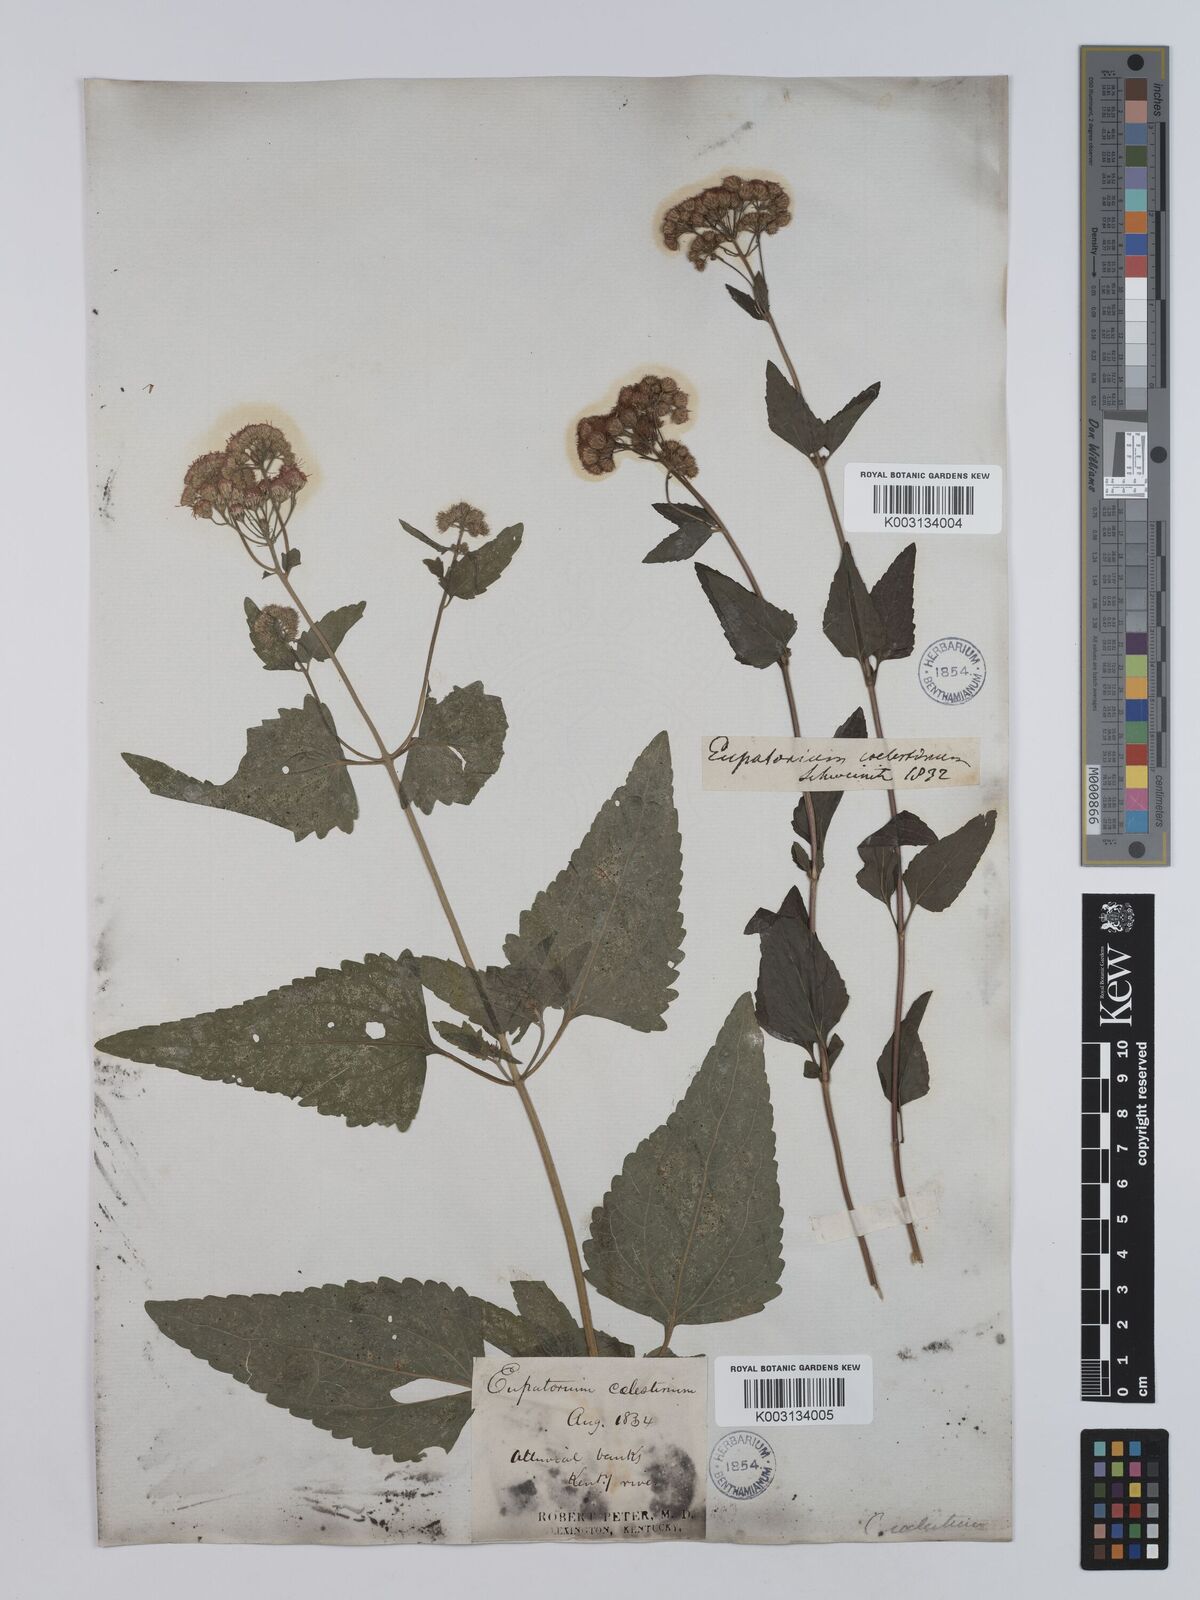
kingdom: Plantae
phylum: Tracheophyta
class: Magnoliopsida
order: Asterales
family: Asteraceae
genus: Conoclinium
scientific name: Conoclinium coelestinum
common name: Blue mistflower
